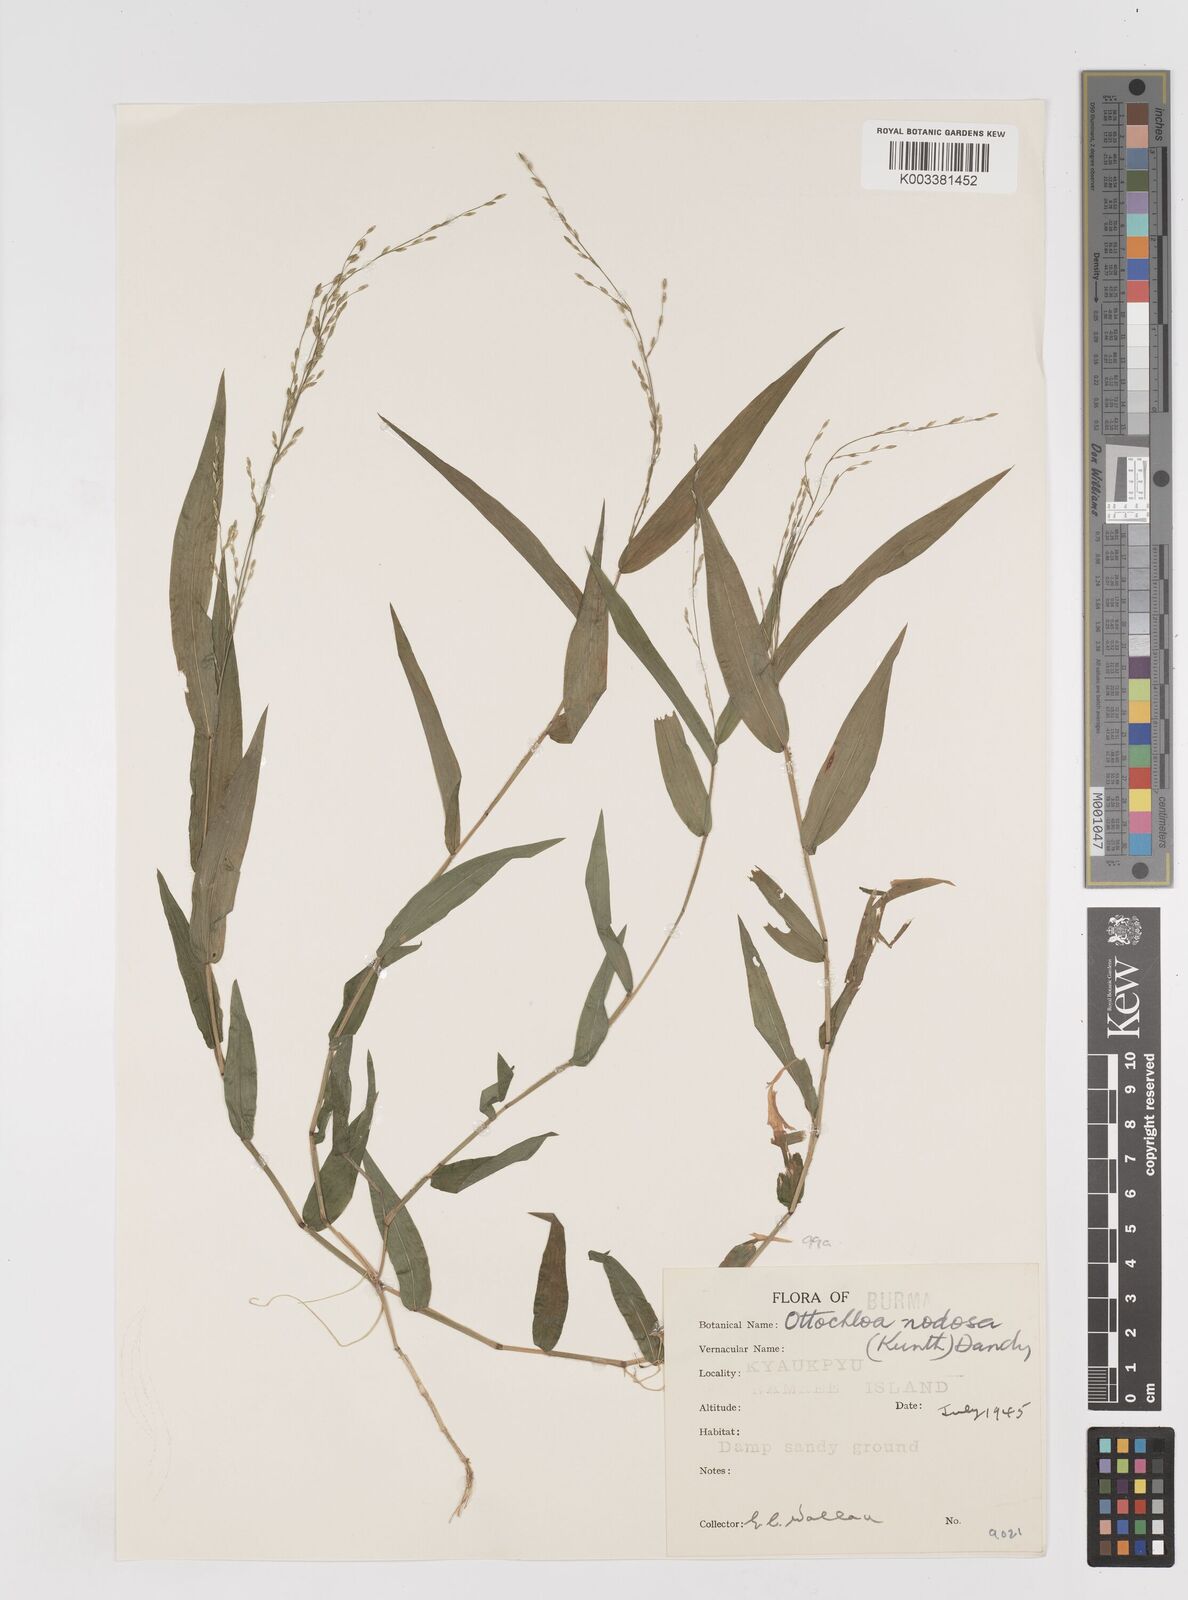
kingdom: Plantae
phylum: Tracheophyta
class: Liliopsida
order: Poales
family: Poaceae
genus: Ottochloa
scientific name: Ottochloa nodosa
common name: Slender-panic grass
